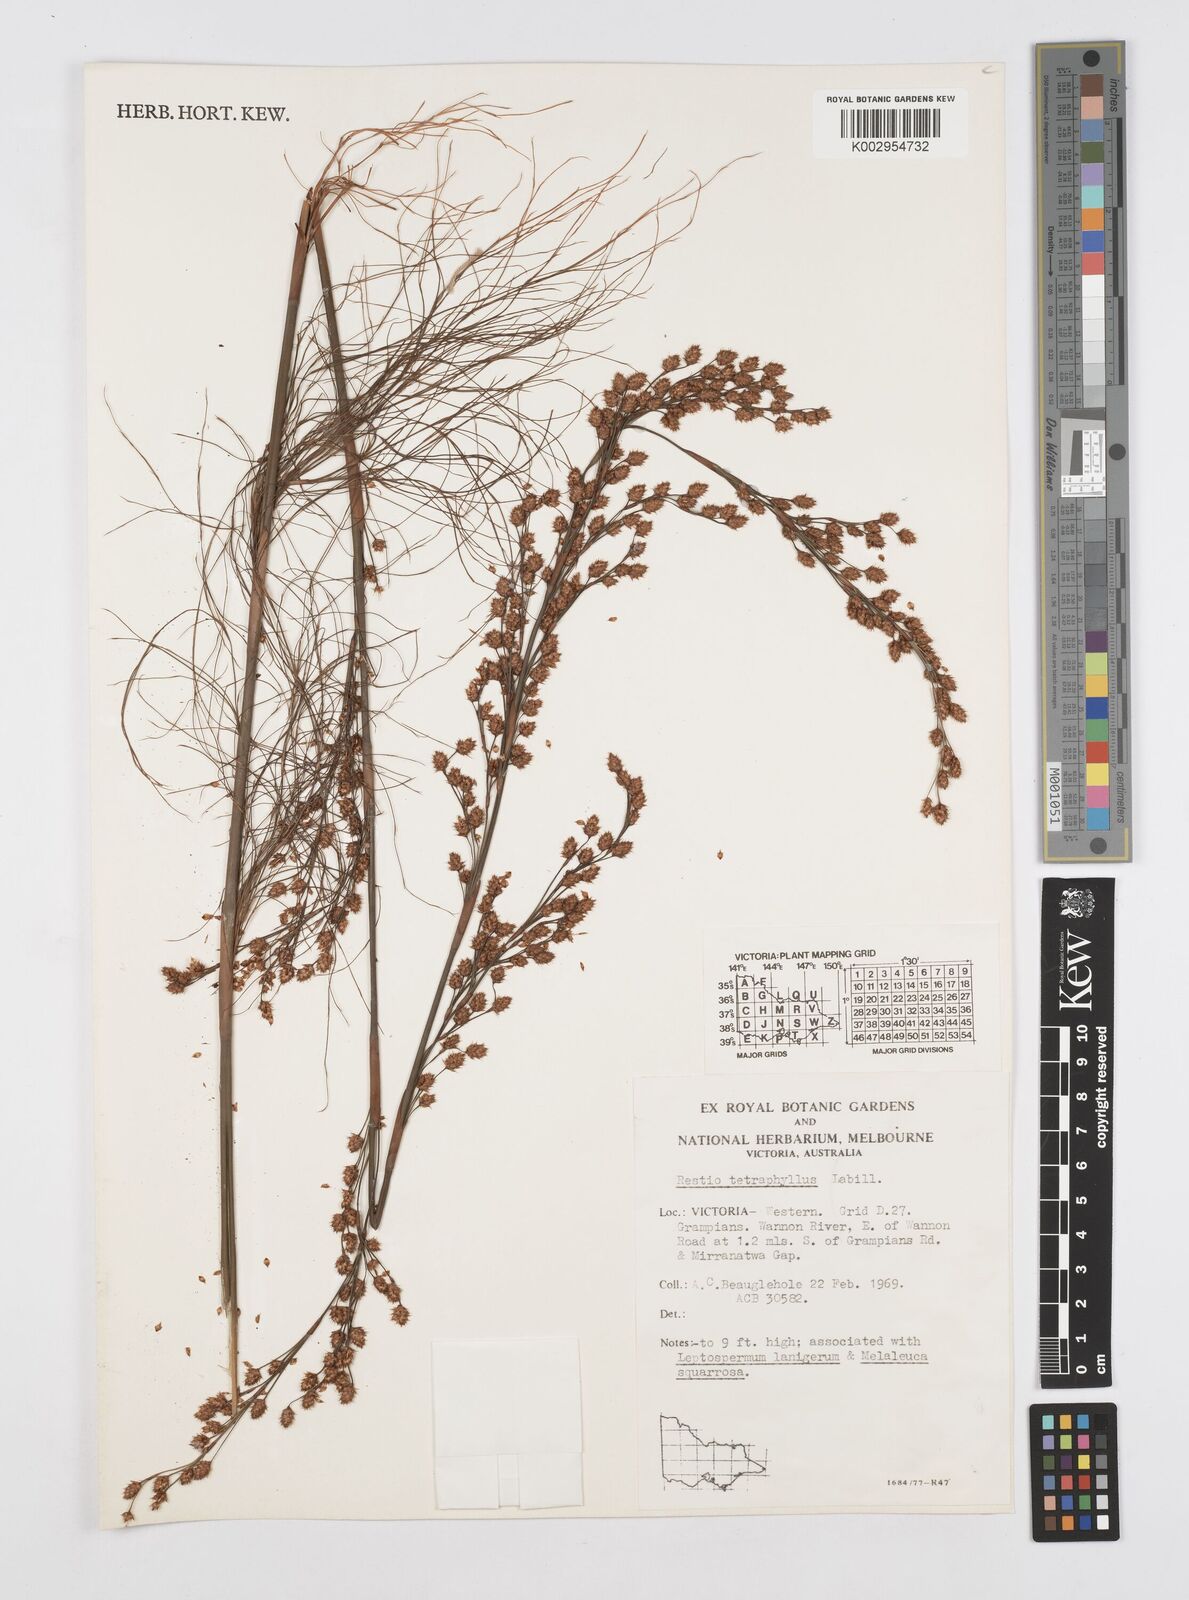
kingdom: Plantae
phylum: Tracheophyta
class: Liliopsida
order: Poales
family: Restionaceae
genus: Baloskion
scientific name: Baloskion tetraphyllum
